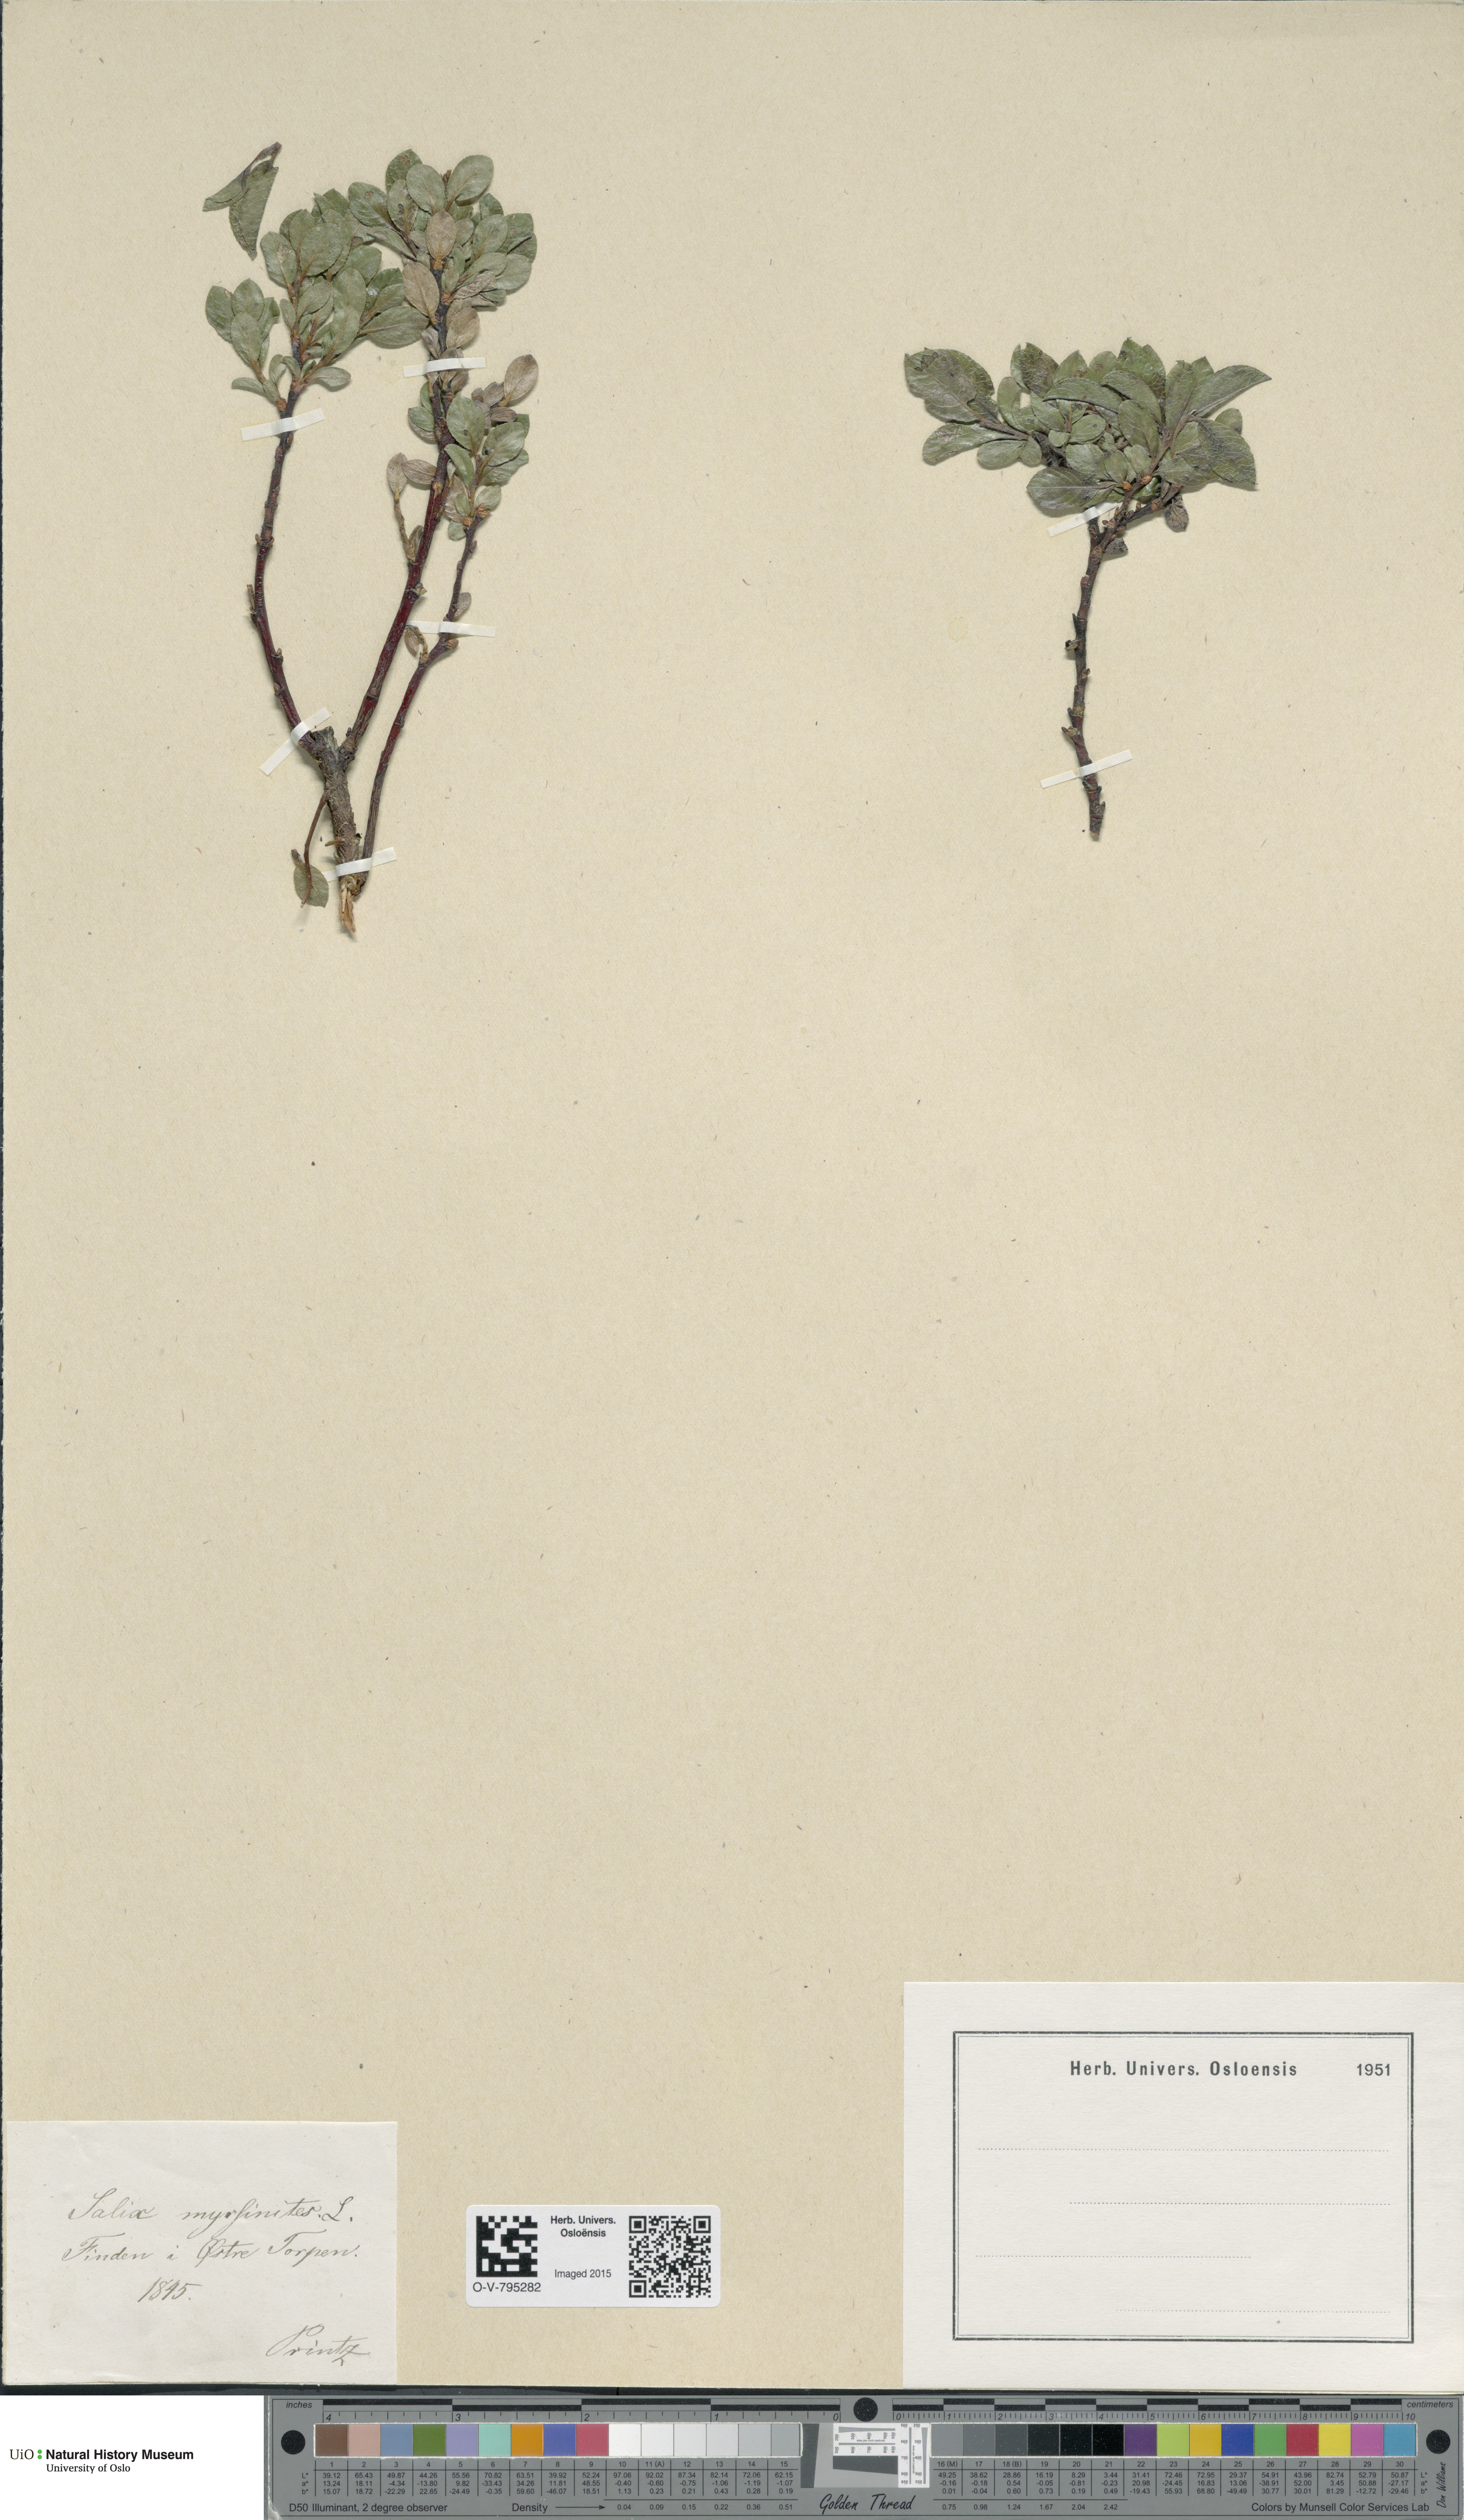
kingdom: Plantae
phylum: Tracheophyta
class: Magnoliopsida
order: Malpighiales
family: Salicaceae
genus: Salix
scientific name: Salix myrsinites
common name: Myrtle willow
